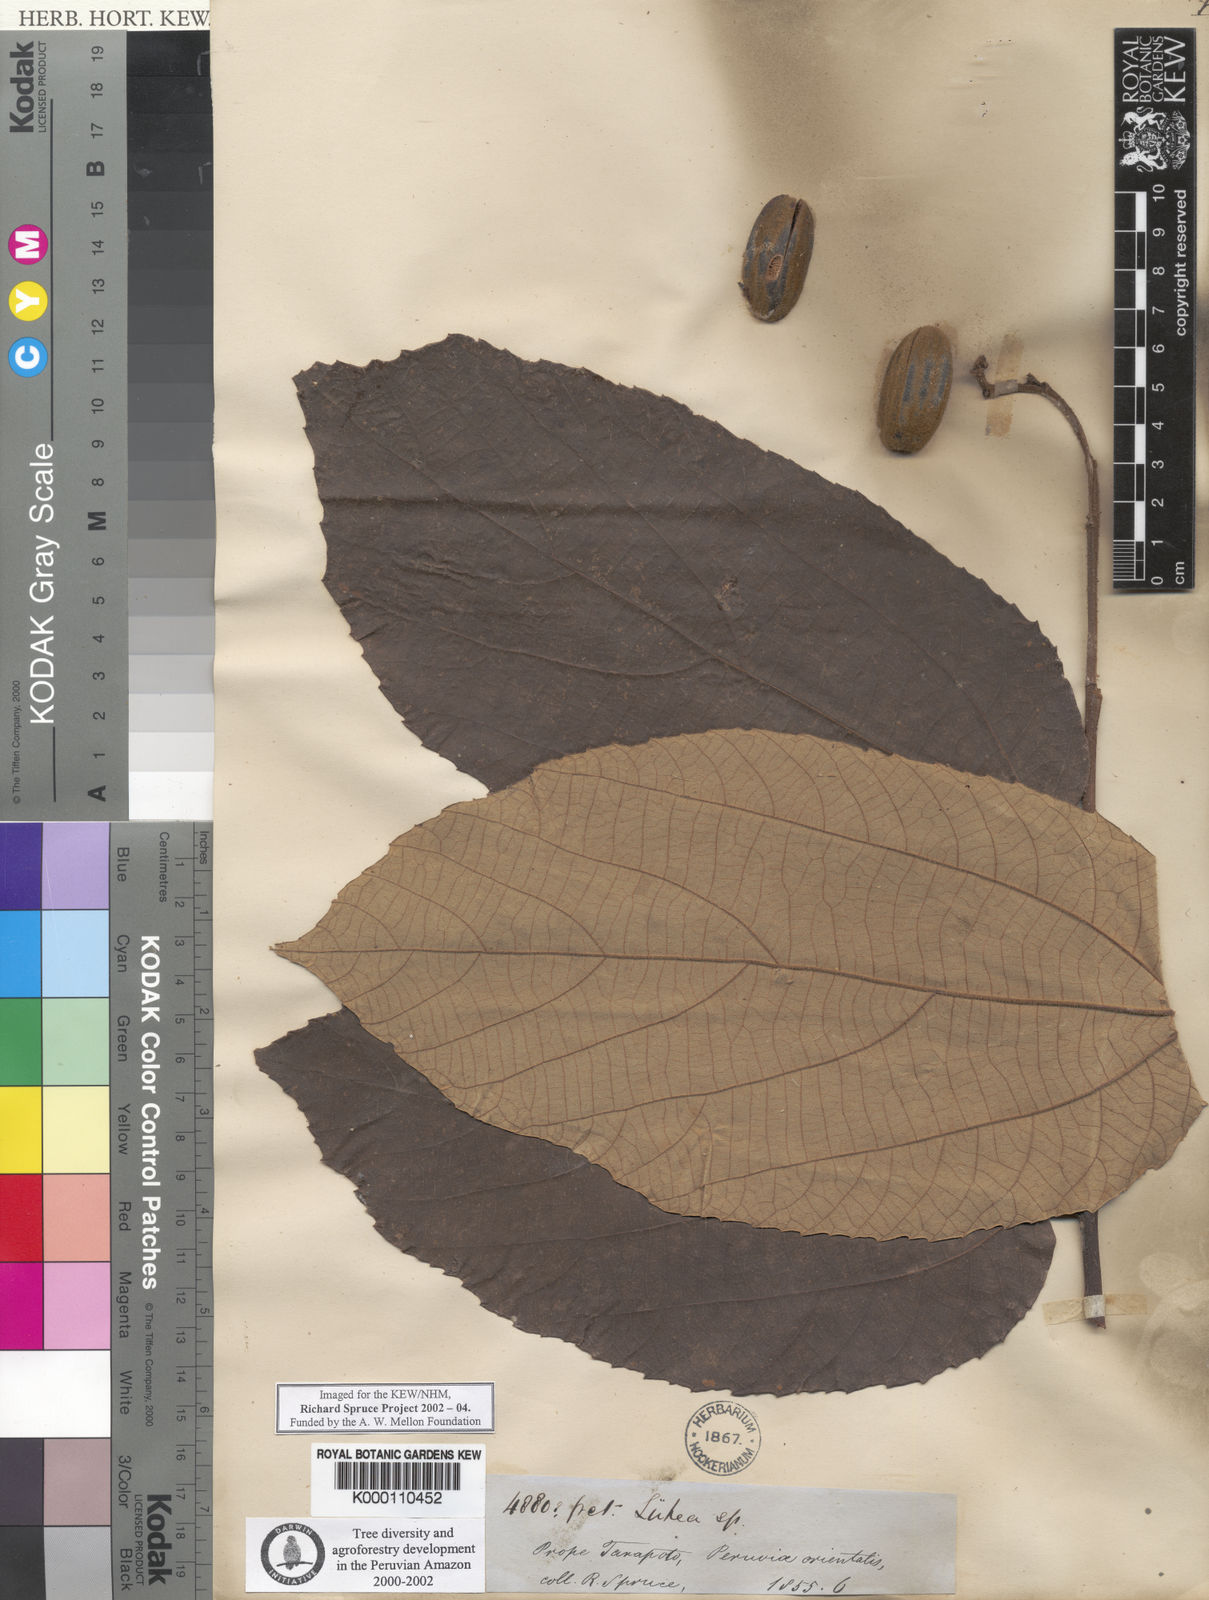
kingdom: Plantae
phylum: Tracheophyta
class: Magnoliopsida
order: Malvales
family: Malvaceae
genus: Luehea
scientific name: Luehea speciosa
